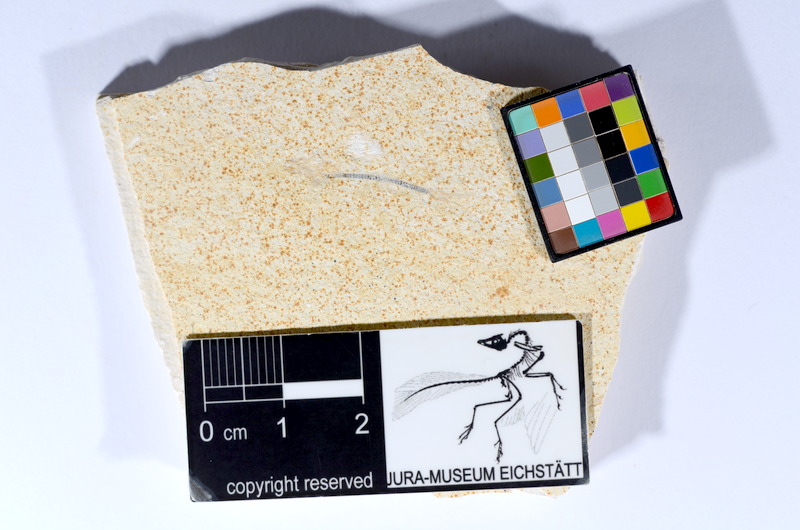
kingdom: Animalia
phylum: Chordata
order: Salmoniformes
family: Orthogonikleithridae
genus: Orthogonikleithrus
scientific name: Orthogonikleithrus hoelli
